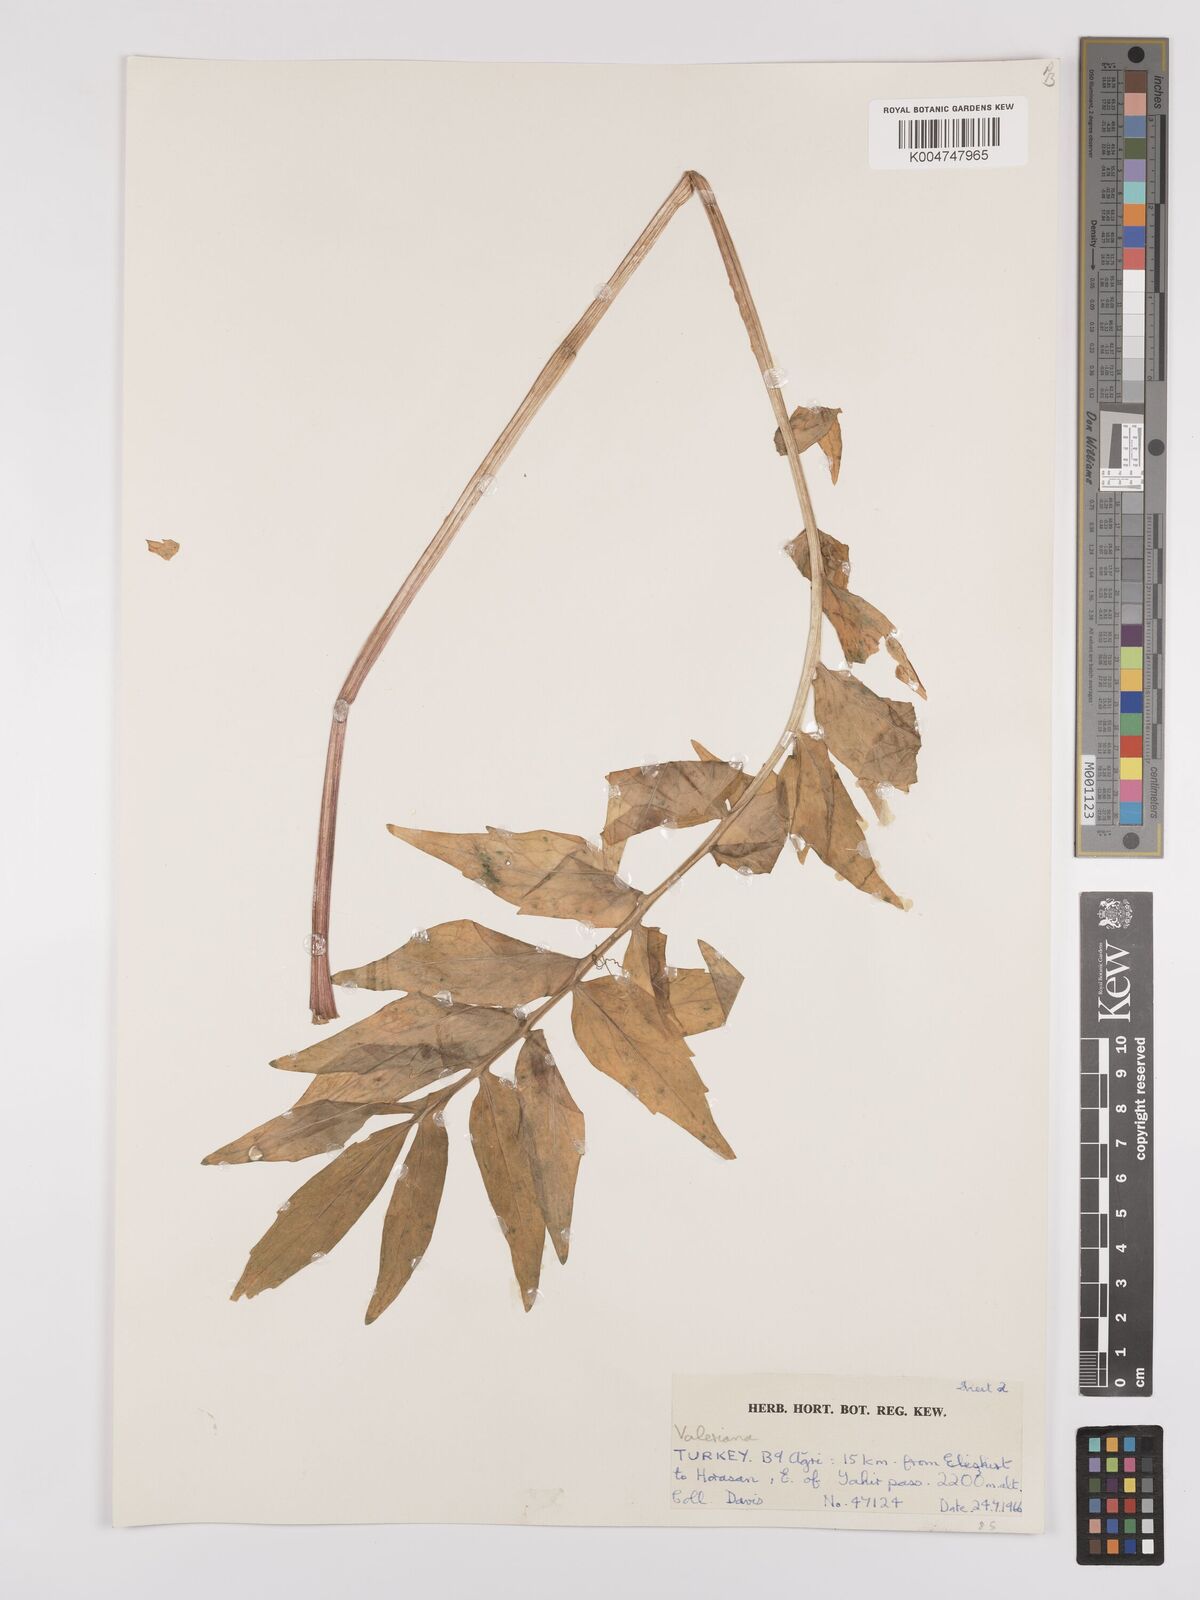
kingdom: Plantae
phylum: Tracheophyta
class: Magnoliopsida
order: Dipsacales
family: Caprifoliaceae
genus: Valeriana
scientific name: Valeriana officinalis
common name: Common valerian
